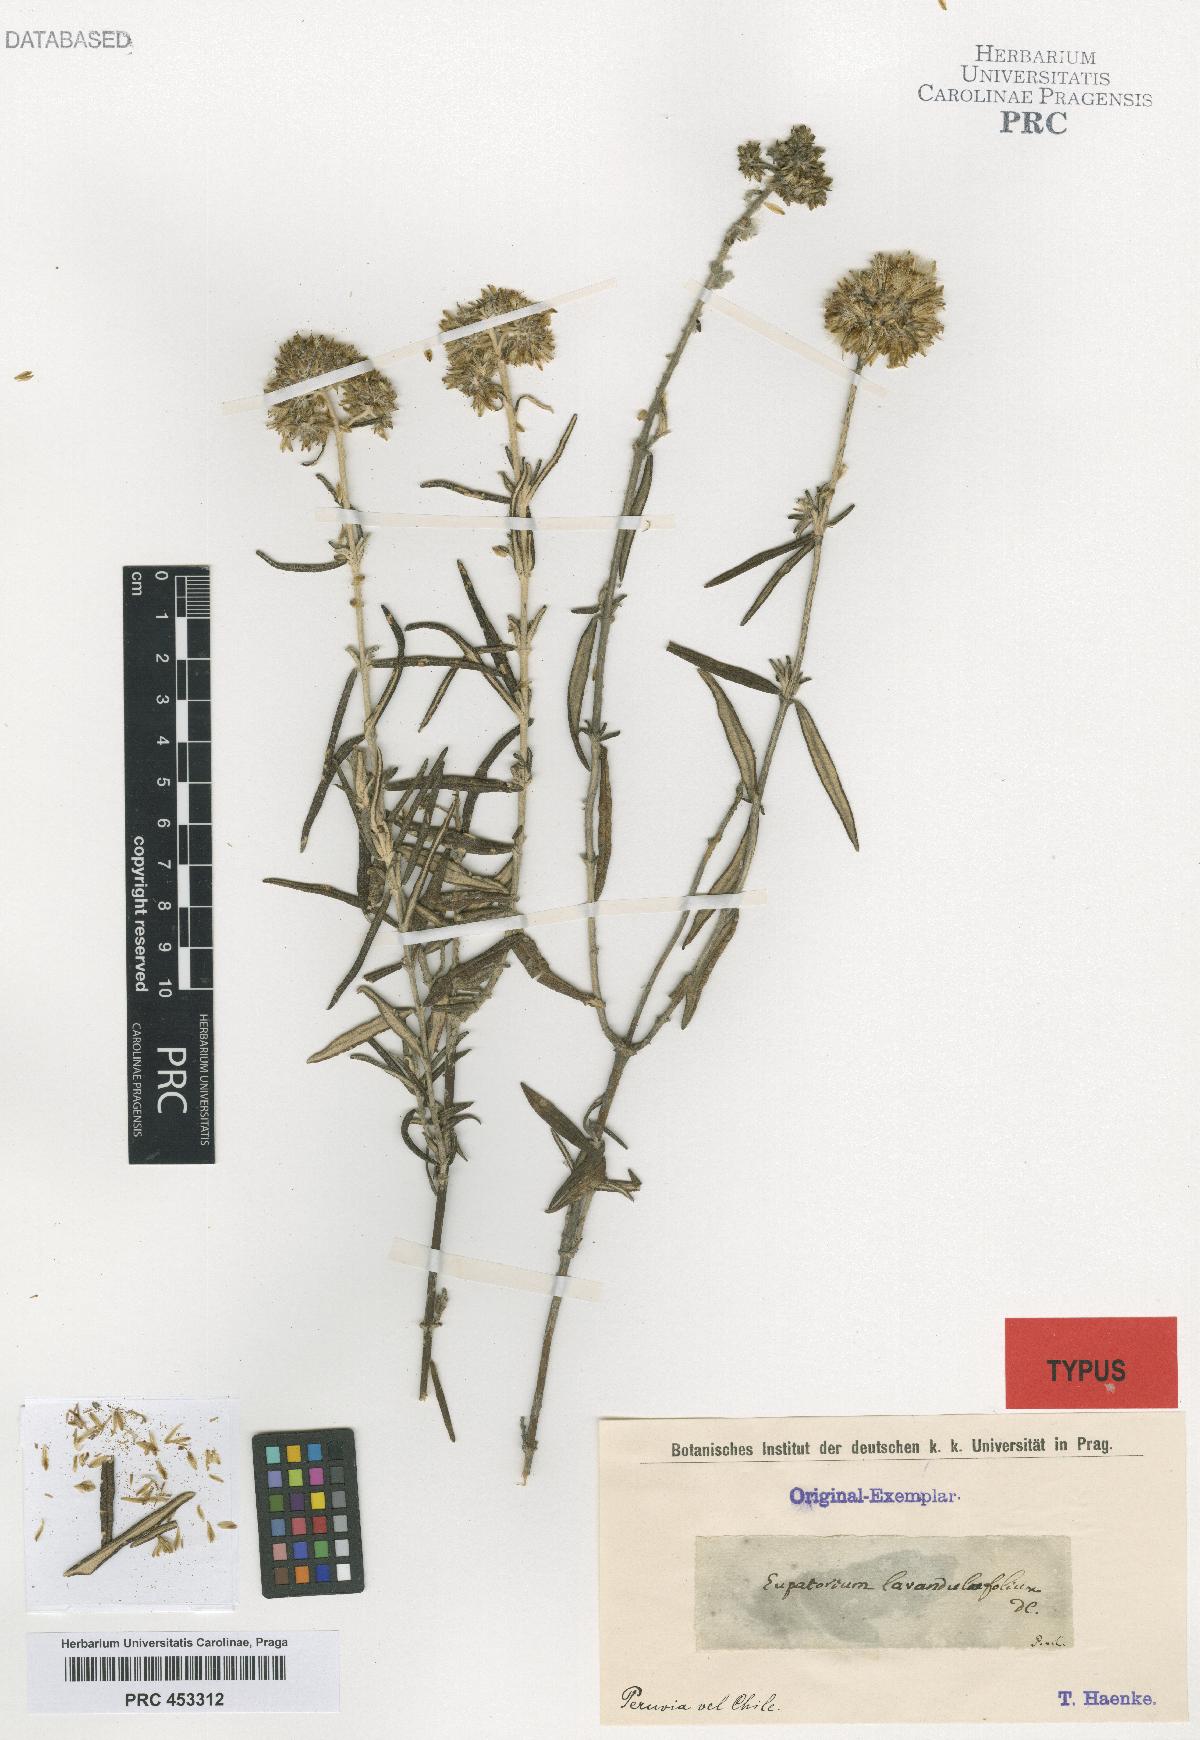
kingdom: Plantae
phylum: Tracheophyta
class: Magnoliopsida
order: Asterales
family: Asteraceae
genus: Cronquistianthus
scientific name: Cronquistianthus lavandulifolius
